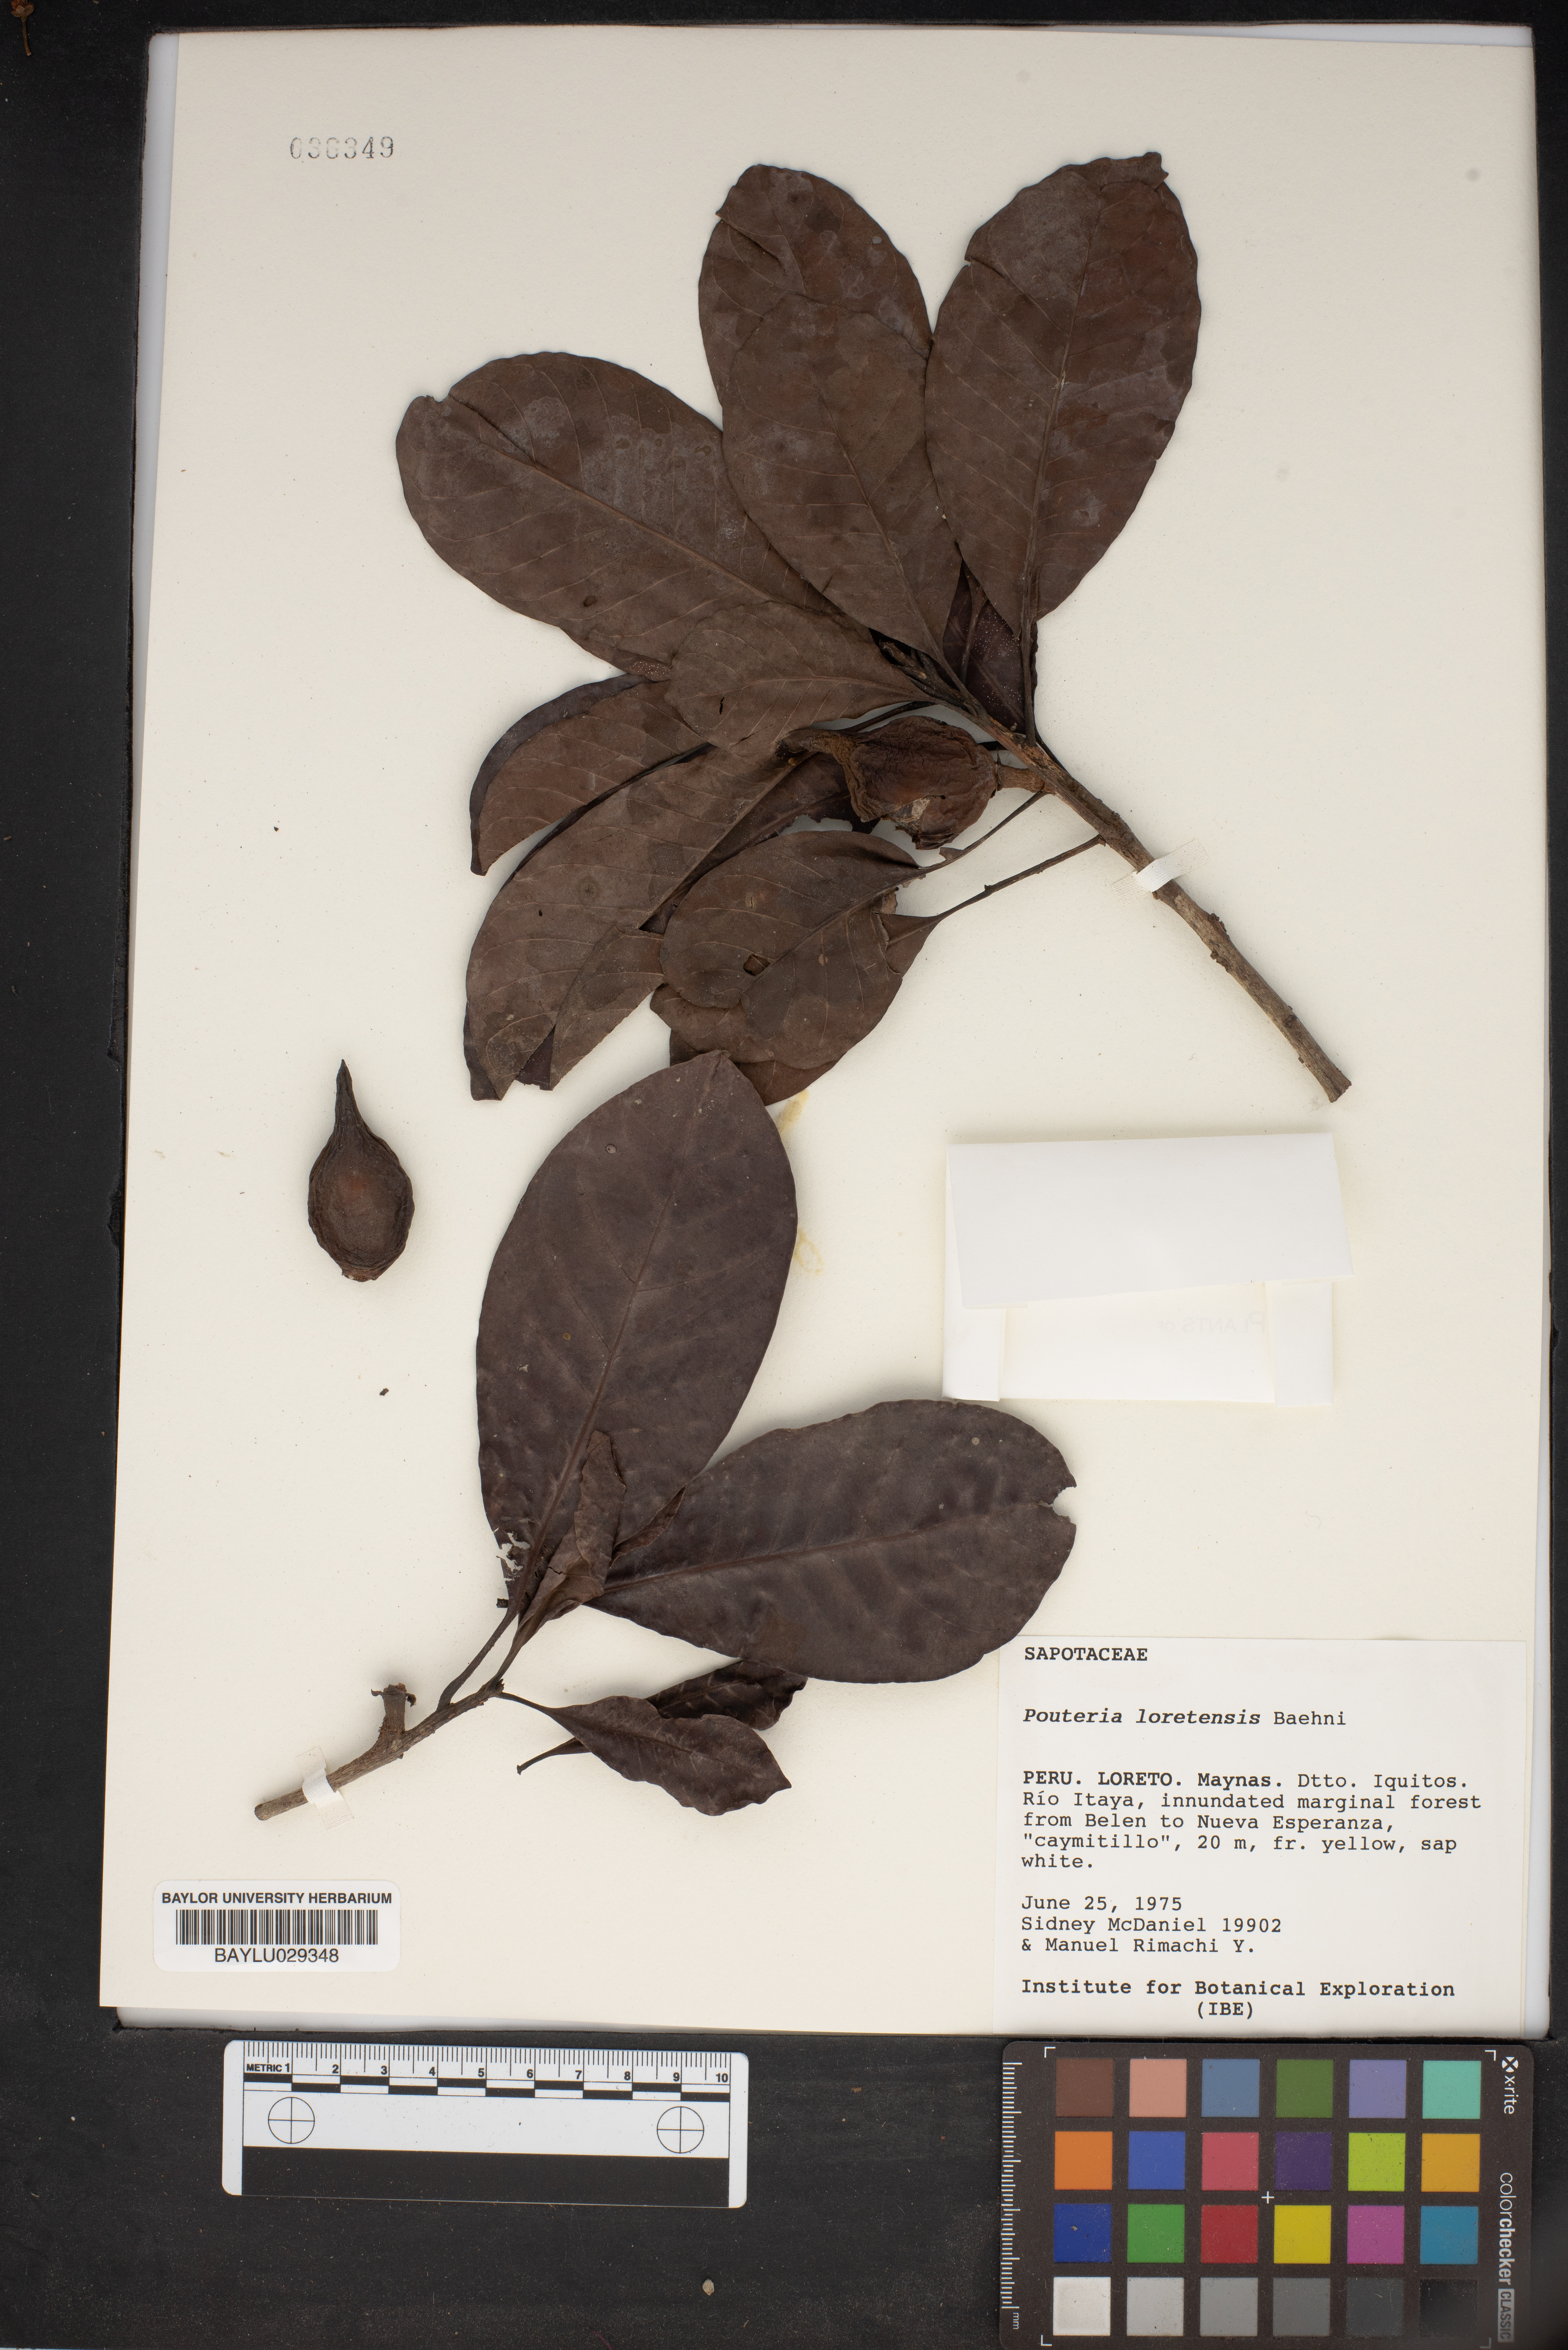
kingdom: Plantae
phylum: Tracheophyta
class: Magnoliopsida
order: Ericales
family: Sapotaceae
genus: Pouteria
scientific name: Pouteria cladantha
